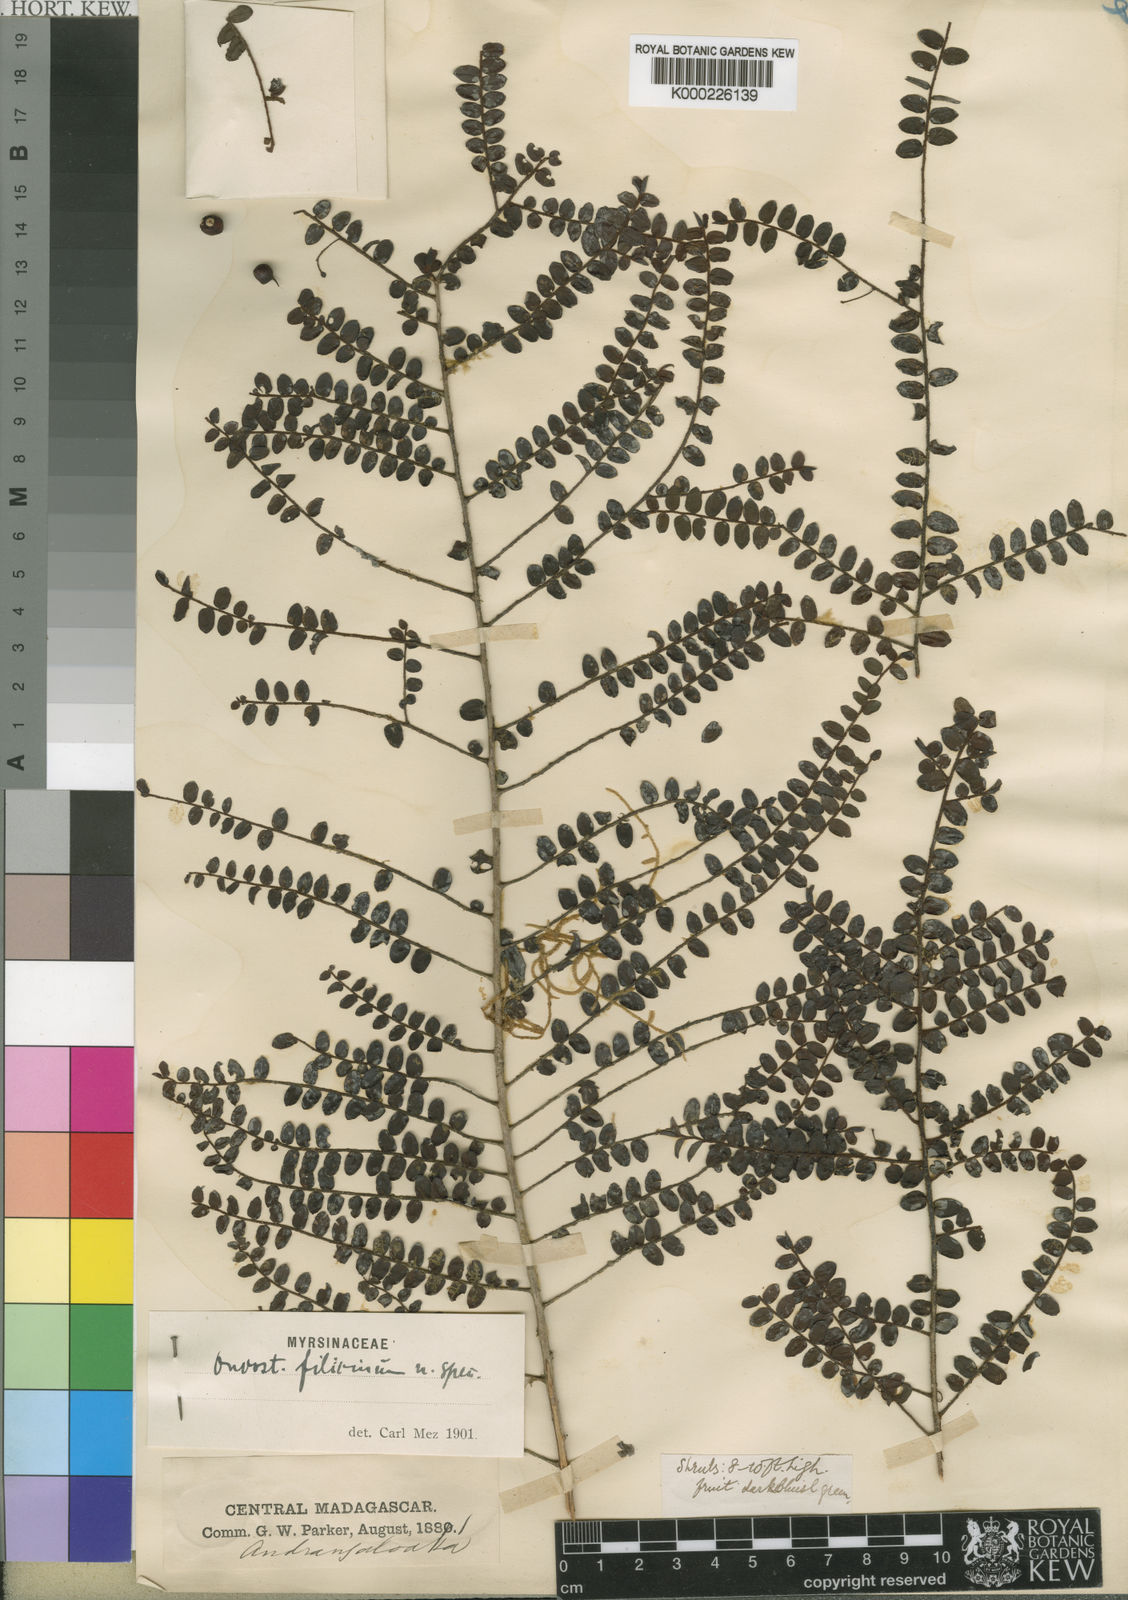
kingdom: Plantae
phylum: Tracheophyta
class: Magnoliopsida
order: Ericales
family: Primulaceae
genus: Oncostemum
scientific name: Oncostemum filicinum
